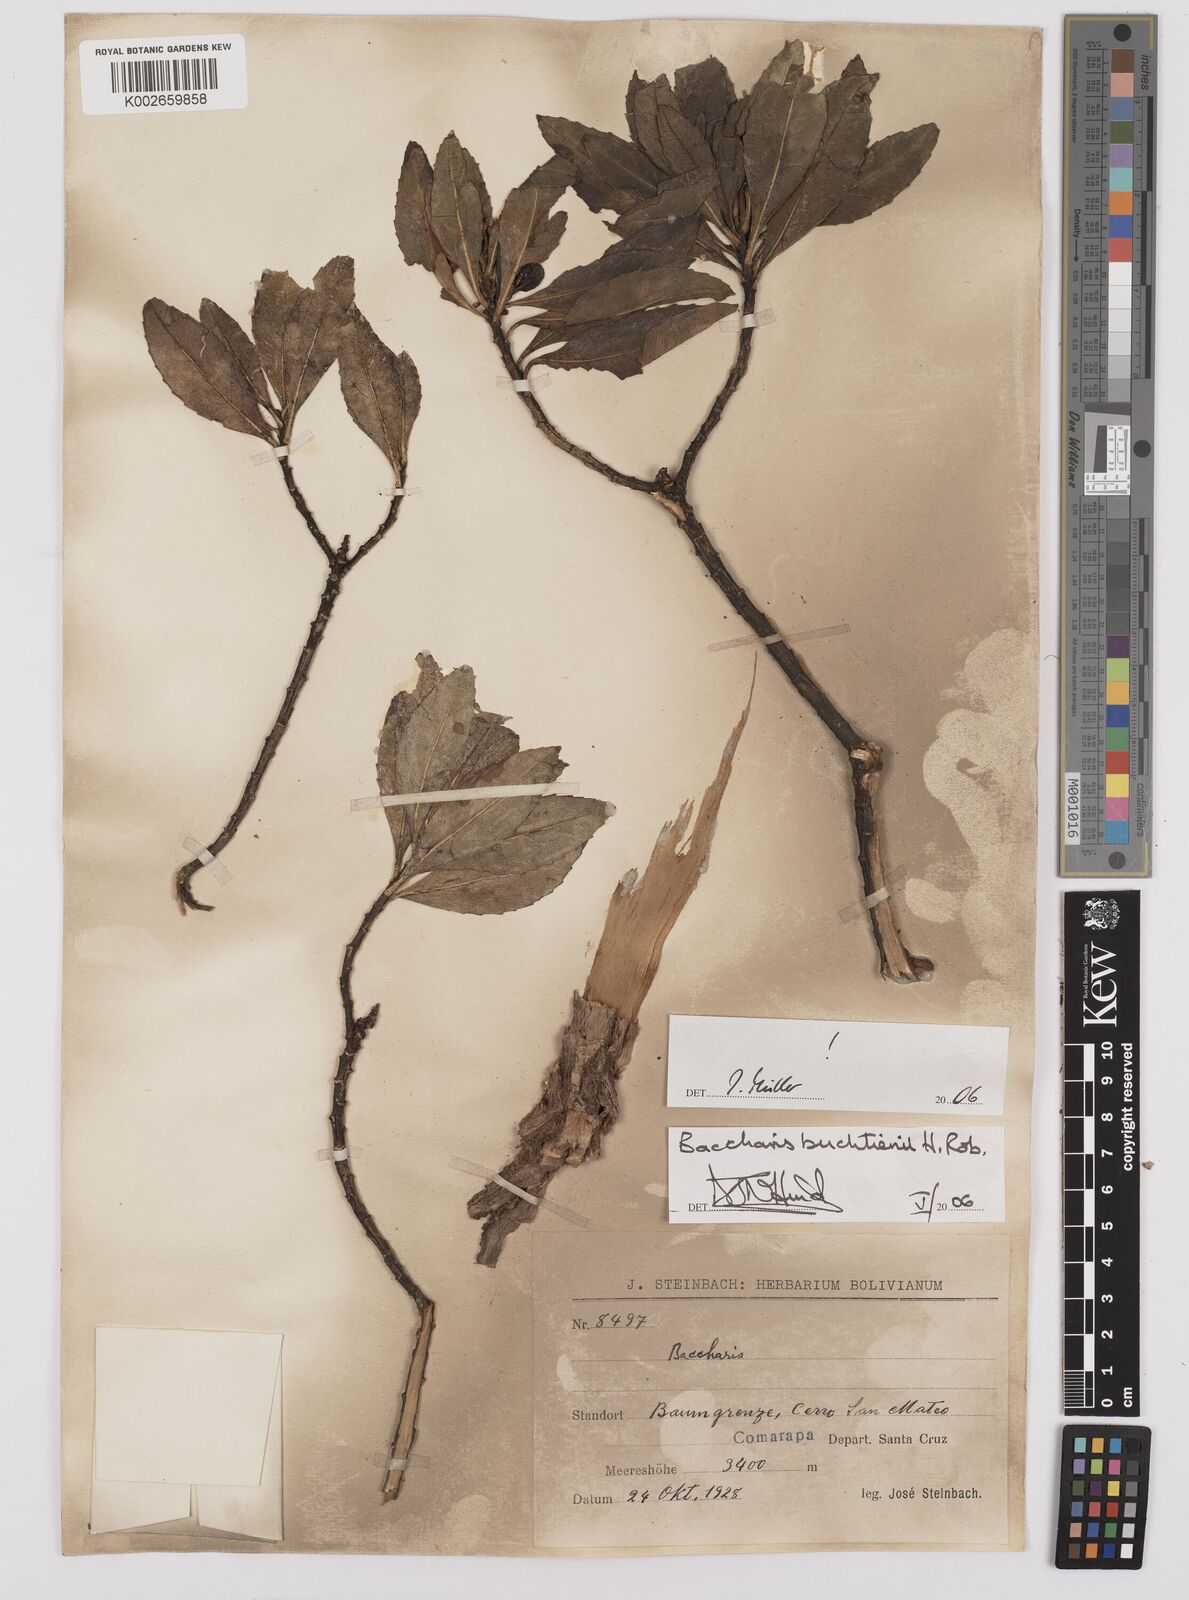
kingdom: Plantae
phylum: Tracheophyta
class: Magnoliopsida
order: Asterales
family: Asteraceae
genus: Baccharis
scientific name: Baccharis buchtienii
